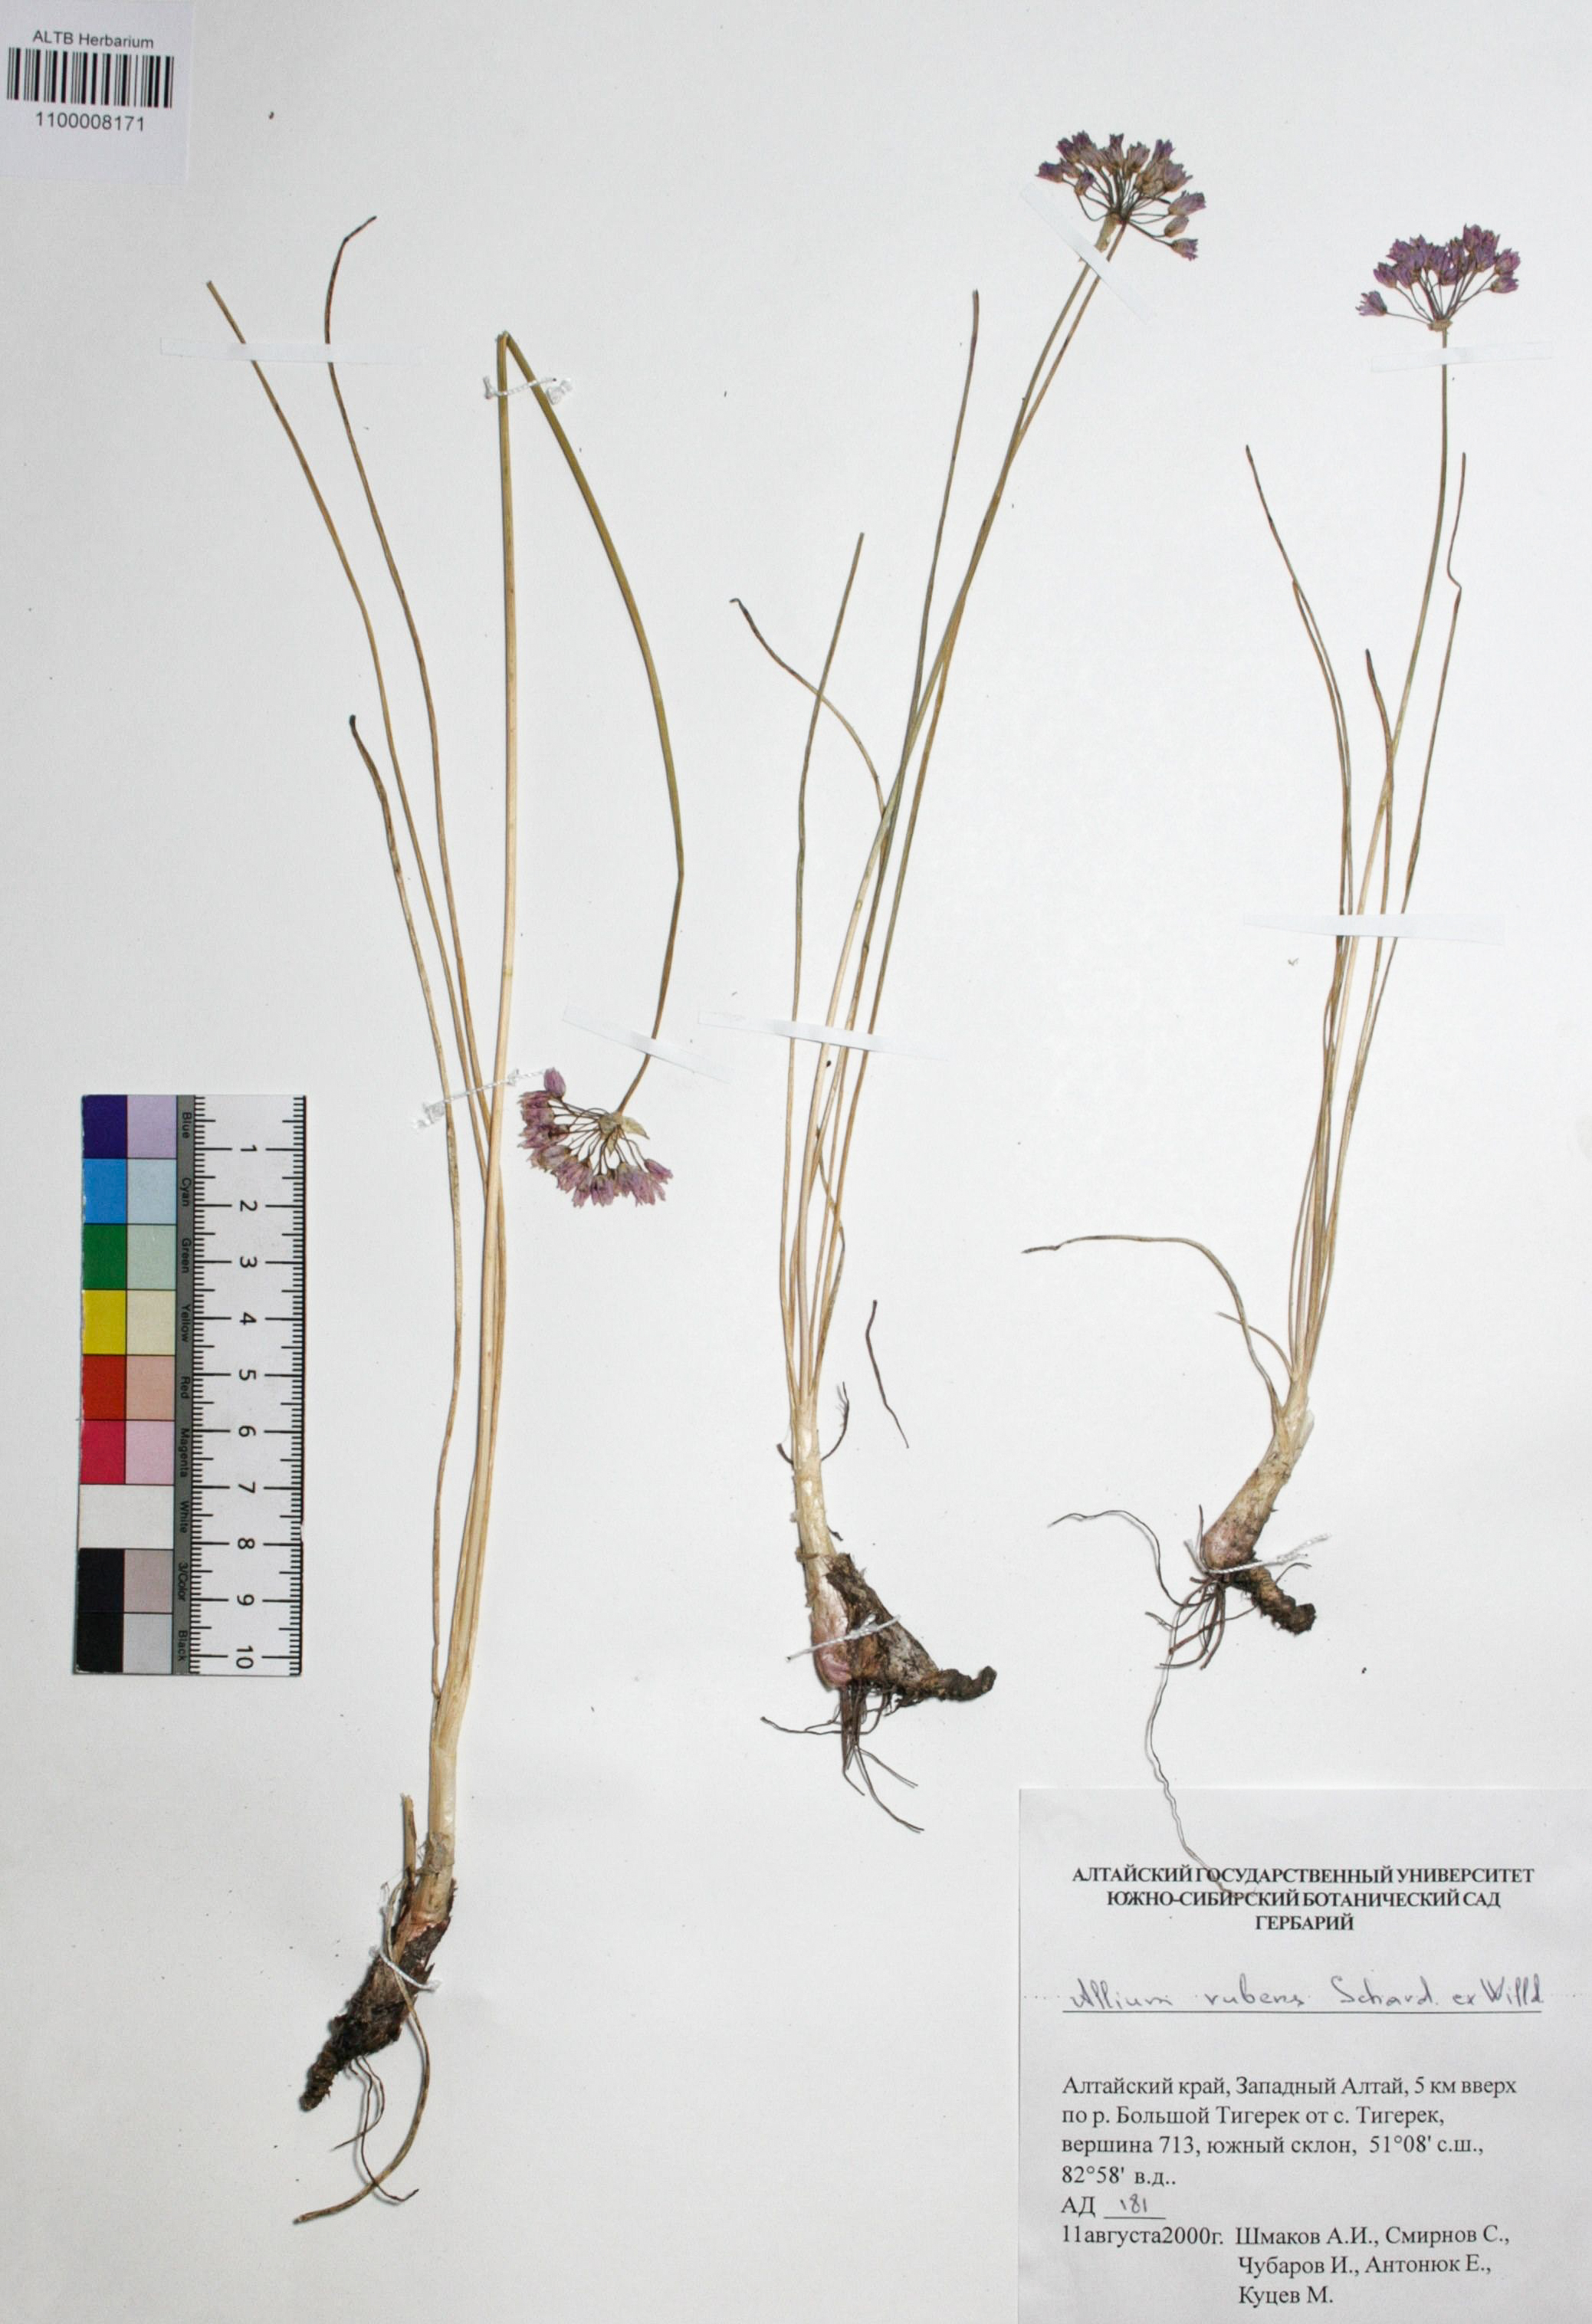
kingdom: Plantae
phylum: Tracheophyta
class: Liliopsida
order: Asparagales
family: Amaryllidaceae
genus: Allium
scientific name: Allium rubens
